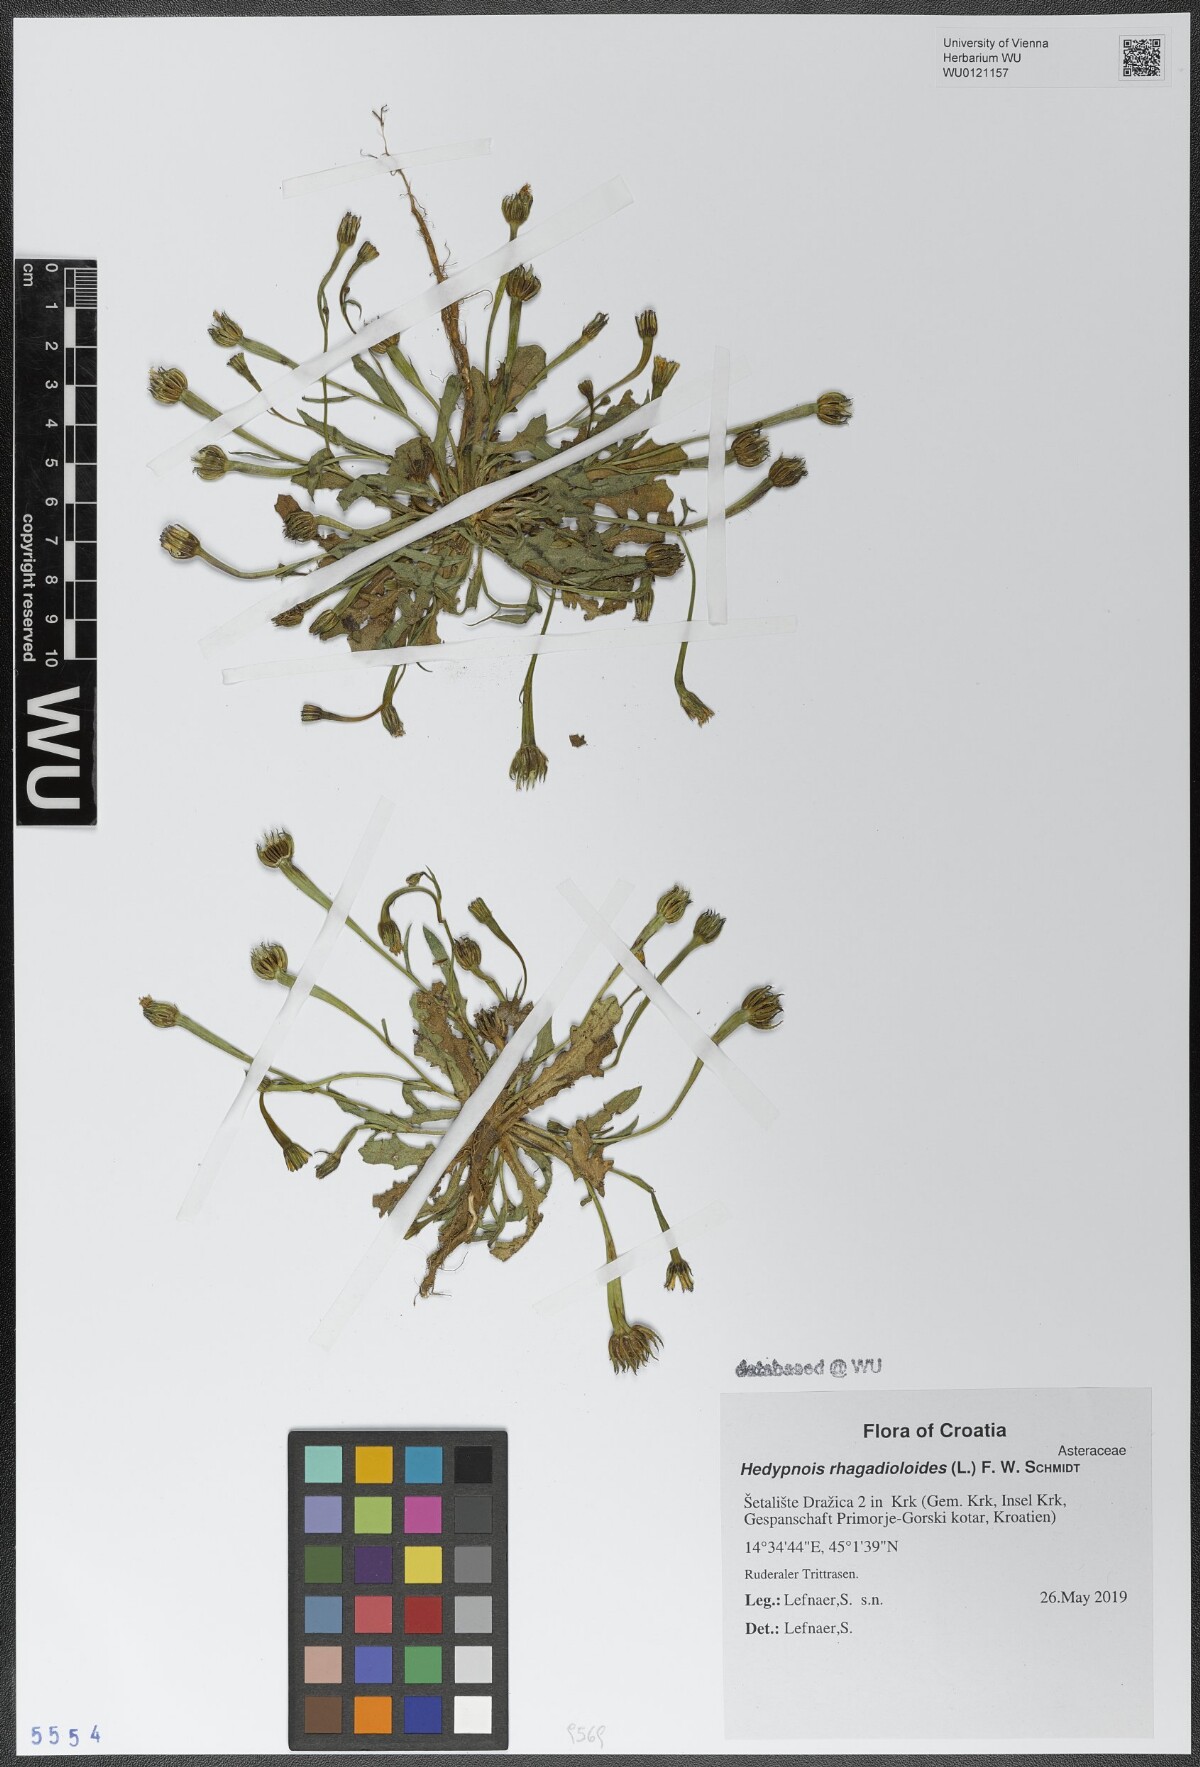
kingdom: Plantae
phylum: Tracheophyta
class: Magnoliopsida
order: Asterales
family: Asteraceae
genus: Hedypnois
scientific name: Hedypnois rhagadioloides
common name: Cretan weed
